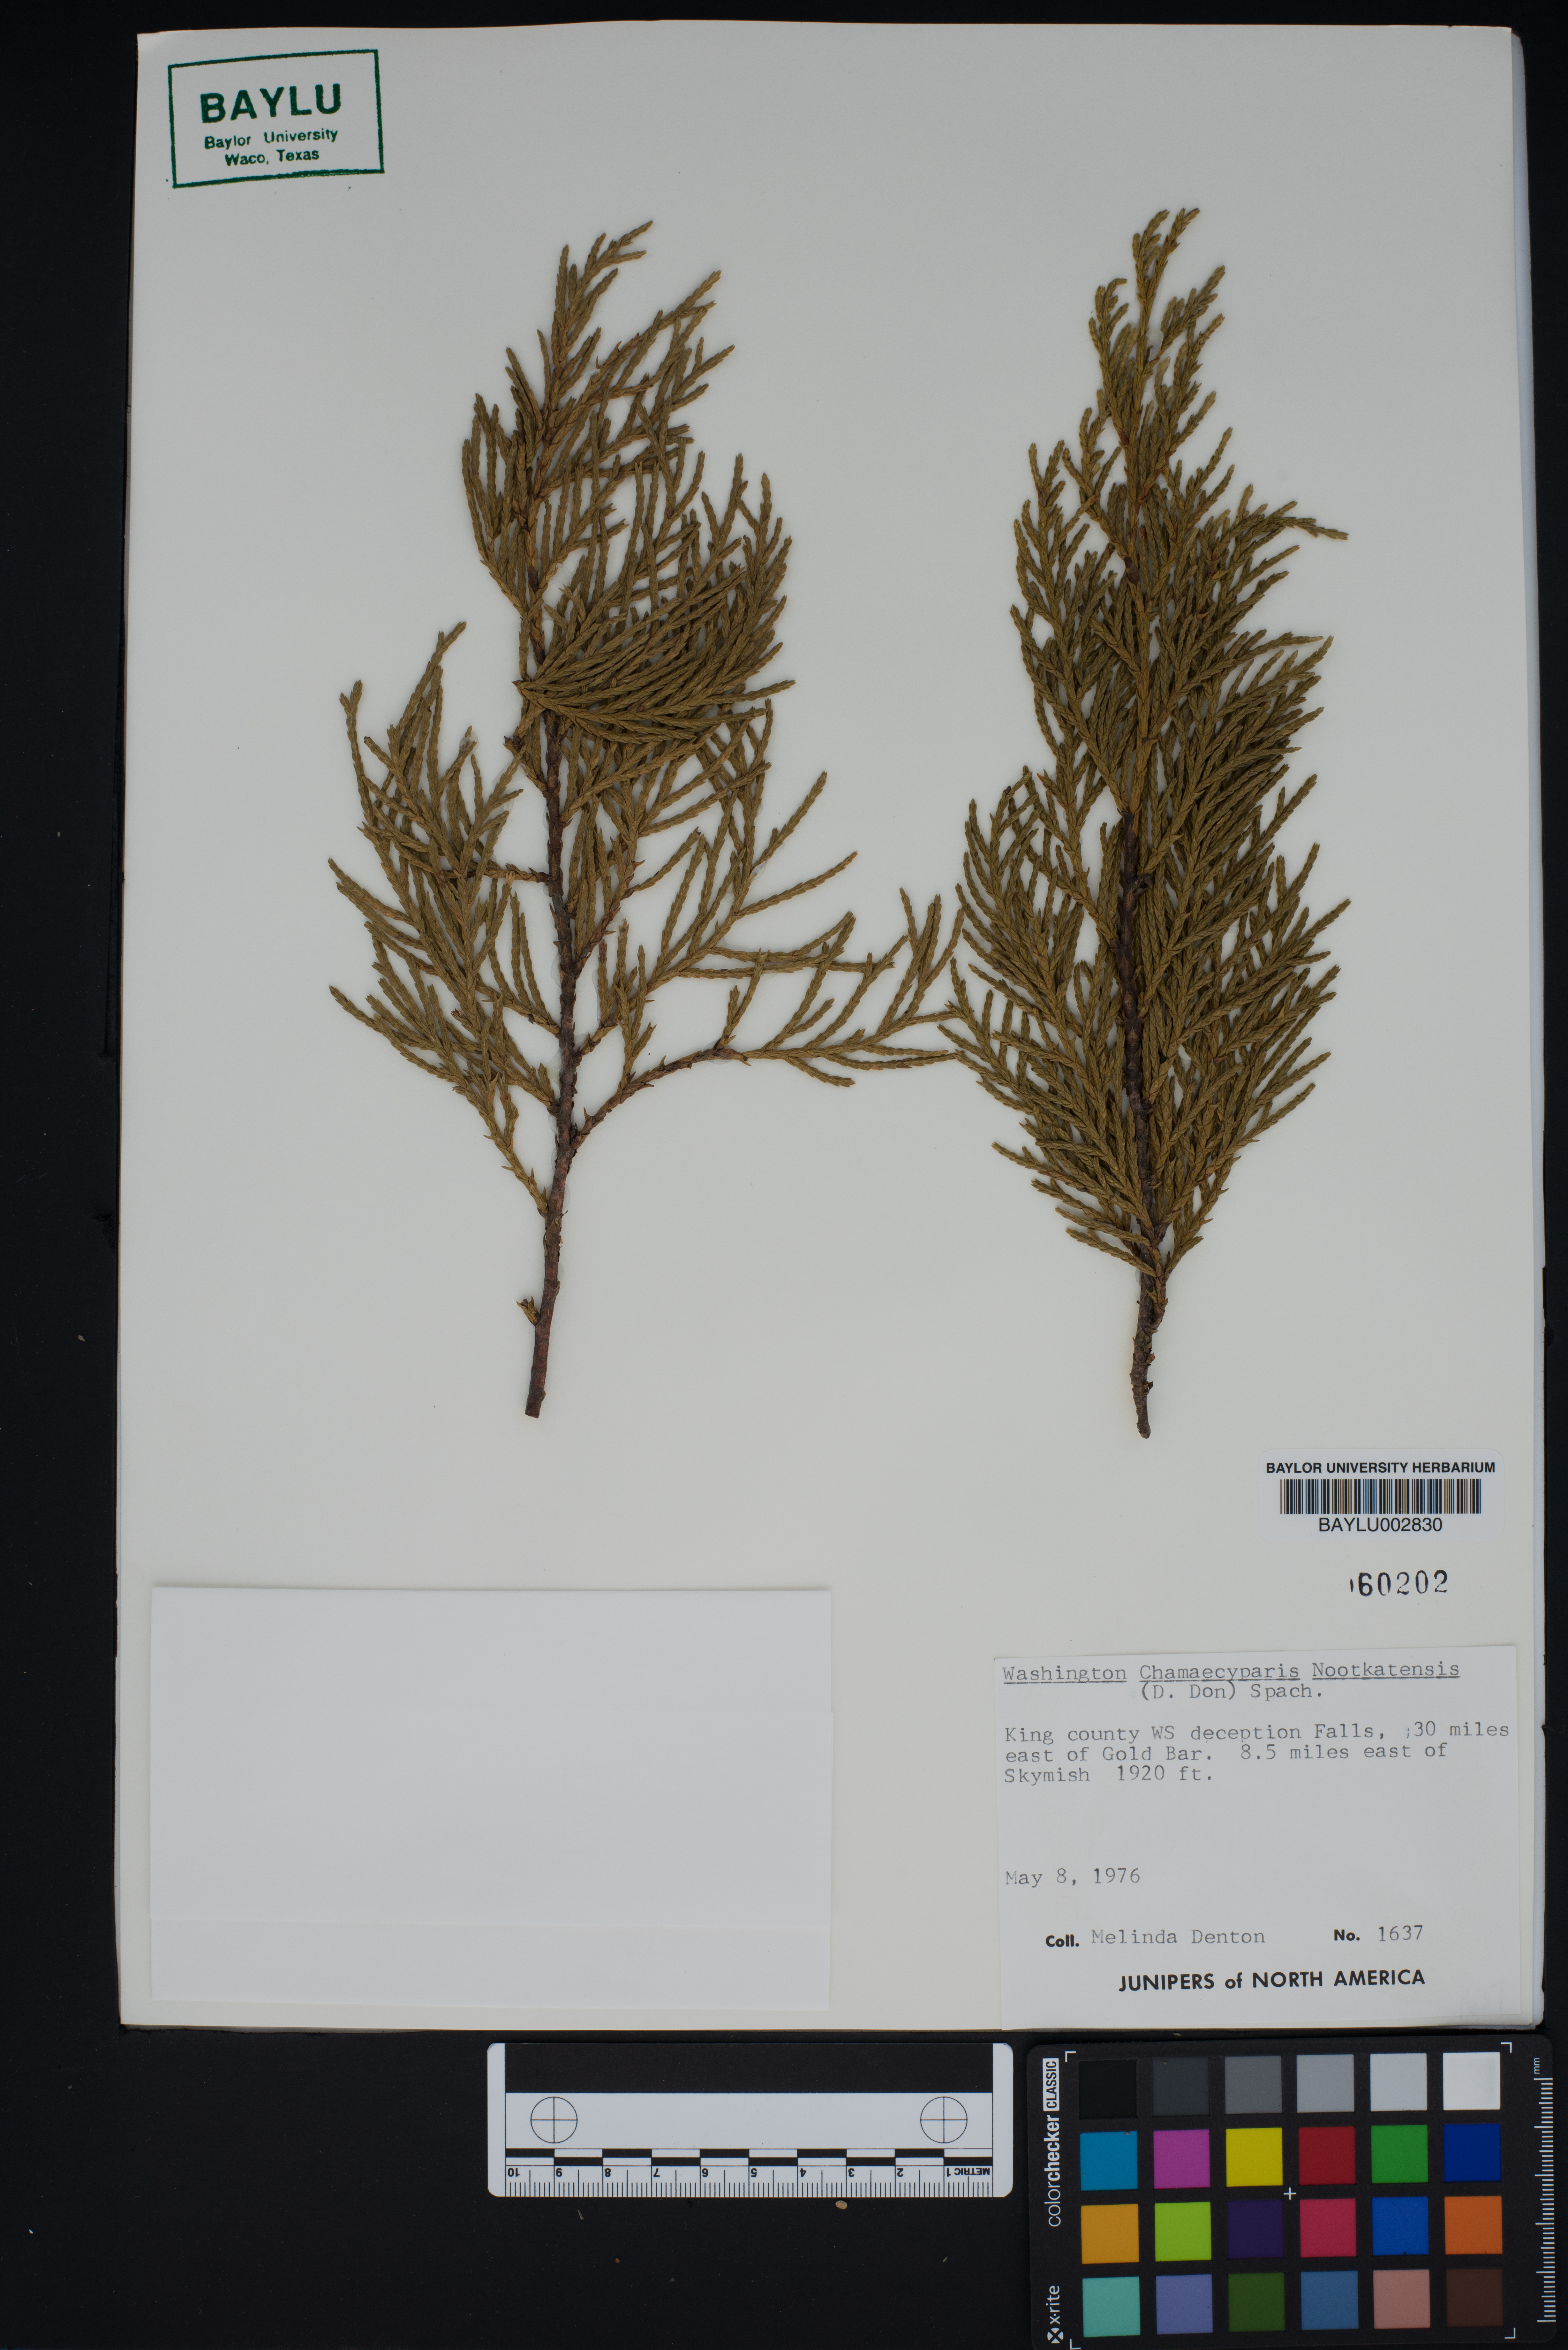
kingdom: Plantae
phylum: Tracheophyta
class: Pinopsida
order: Pinales
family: Cupressaceae
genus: Xanthocyparis
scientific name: Xanthocyparis nootkatensis
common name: Nootka cypress
